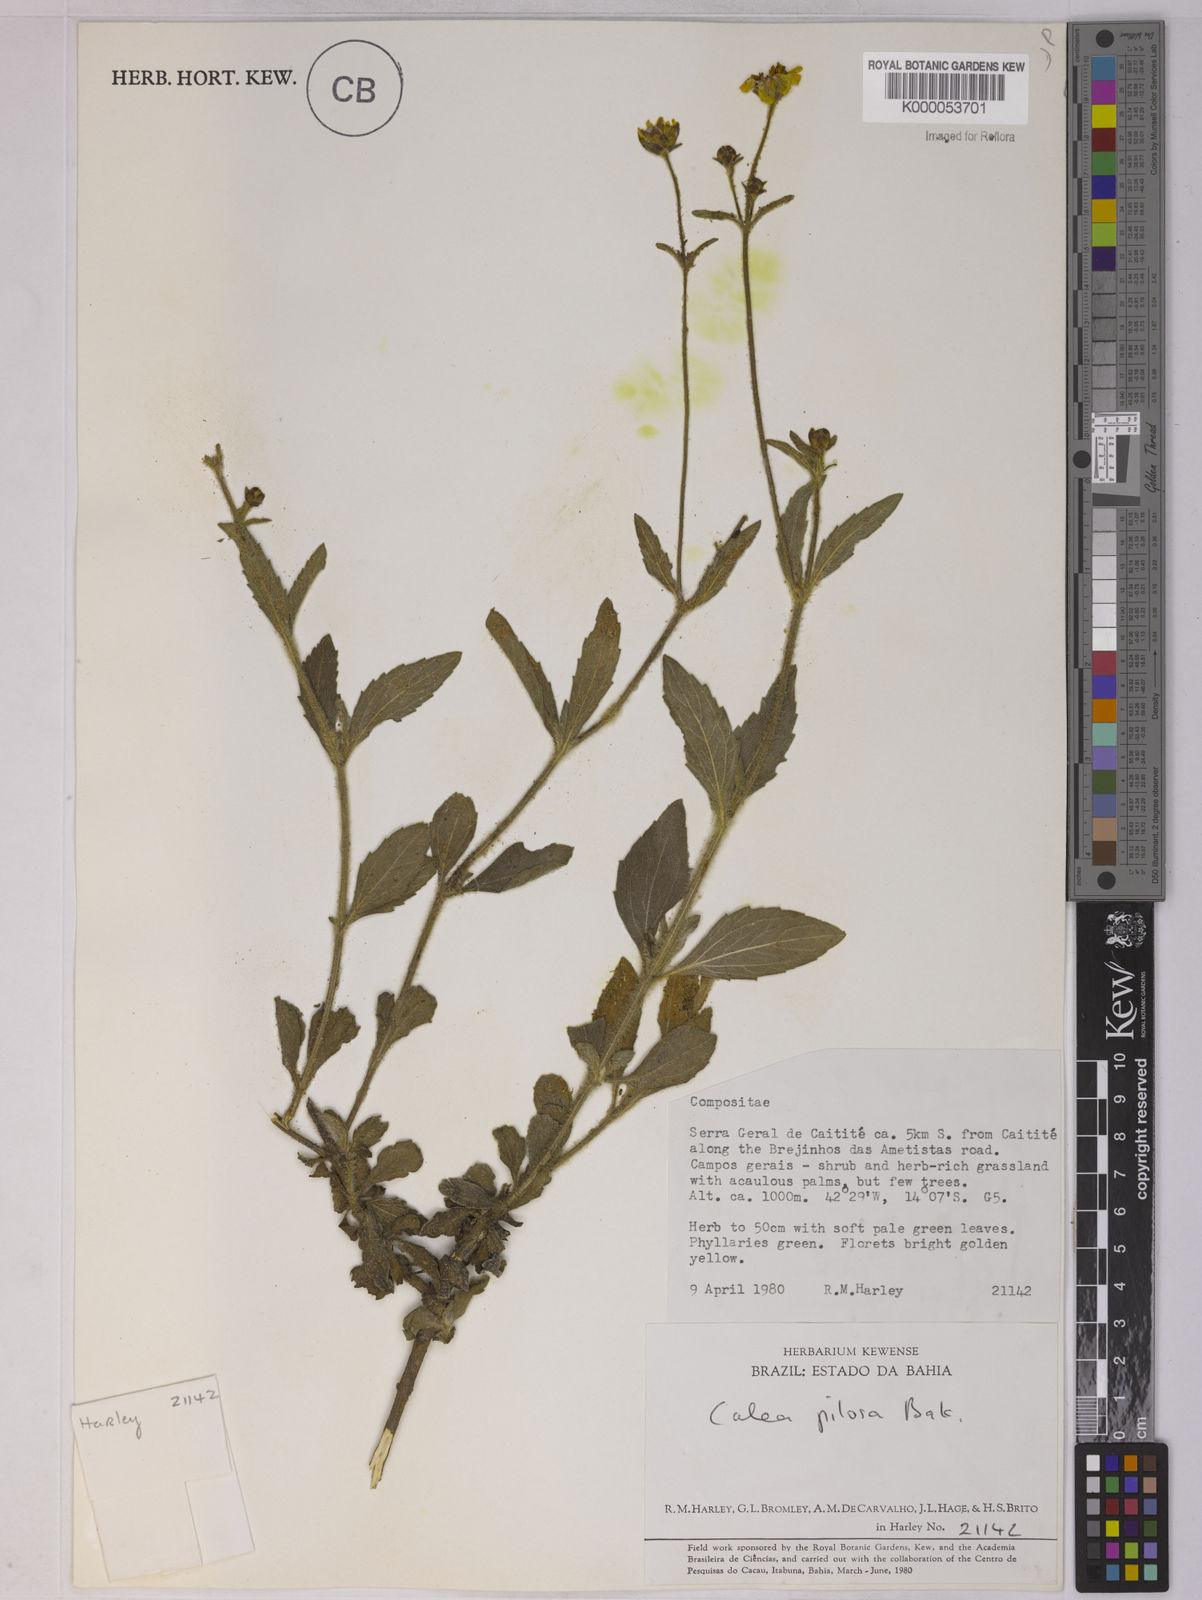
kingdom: Plantae
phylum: Tracheophyta
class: Magnoliopsida
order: Asterales
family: Asteraceae
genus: Calea
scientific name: Calea pilosa
